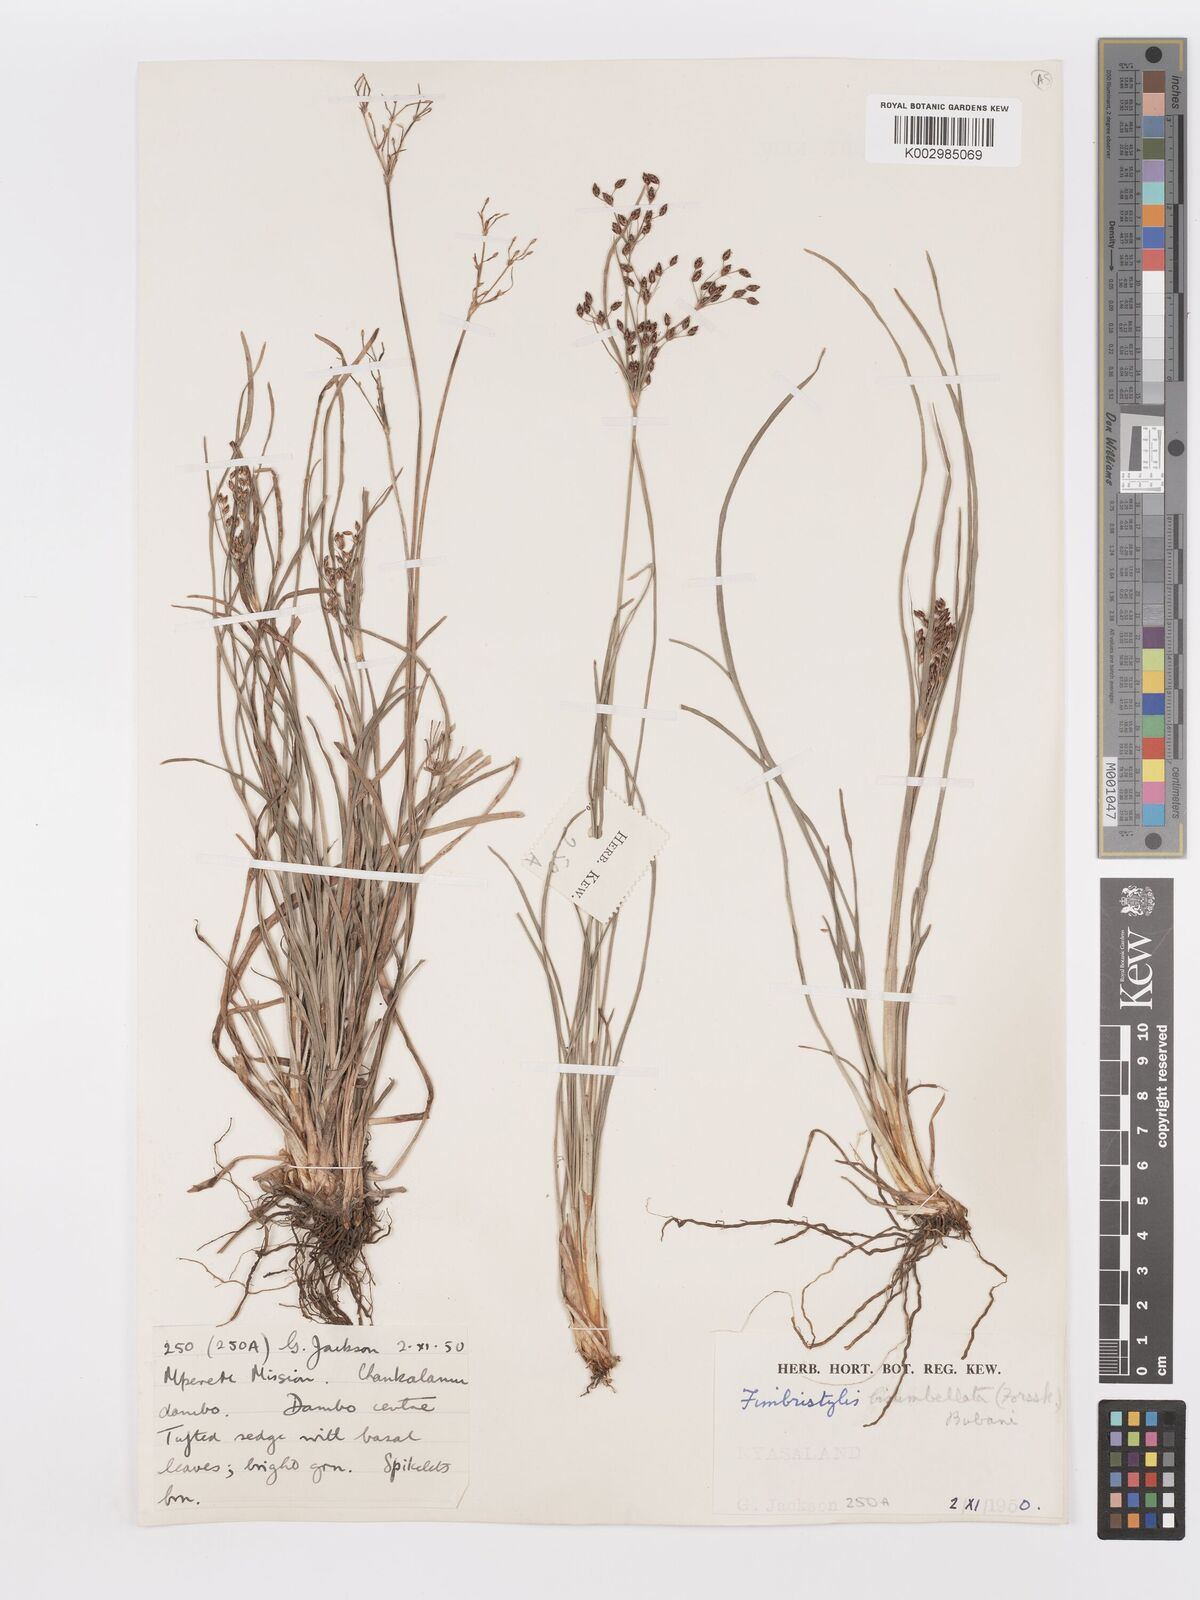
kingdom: Plantae
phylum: Tracheophyta
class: Liliopsida
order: Poales
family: Cyperaceae
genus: Fimbristylis
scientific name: Fimbristylis dichotoma
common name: Forked fimbry
